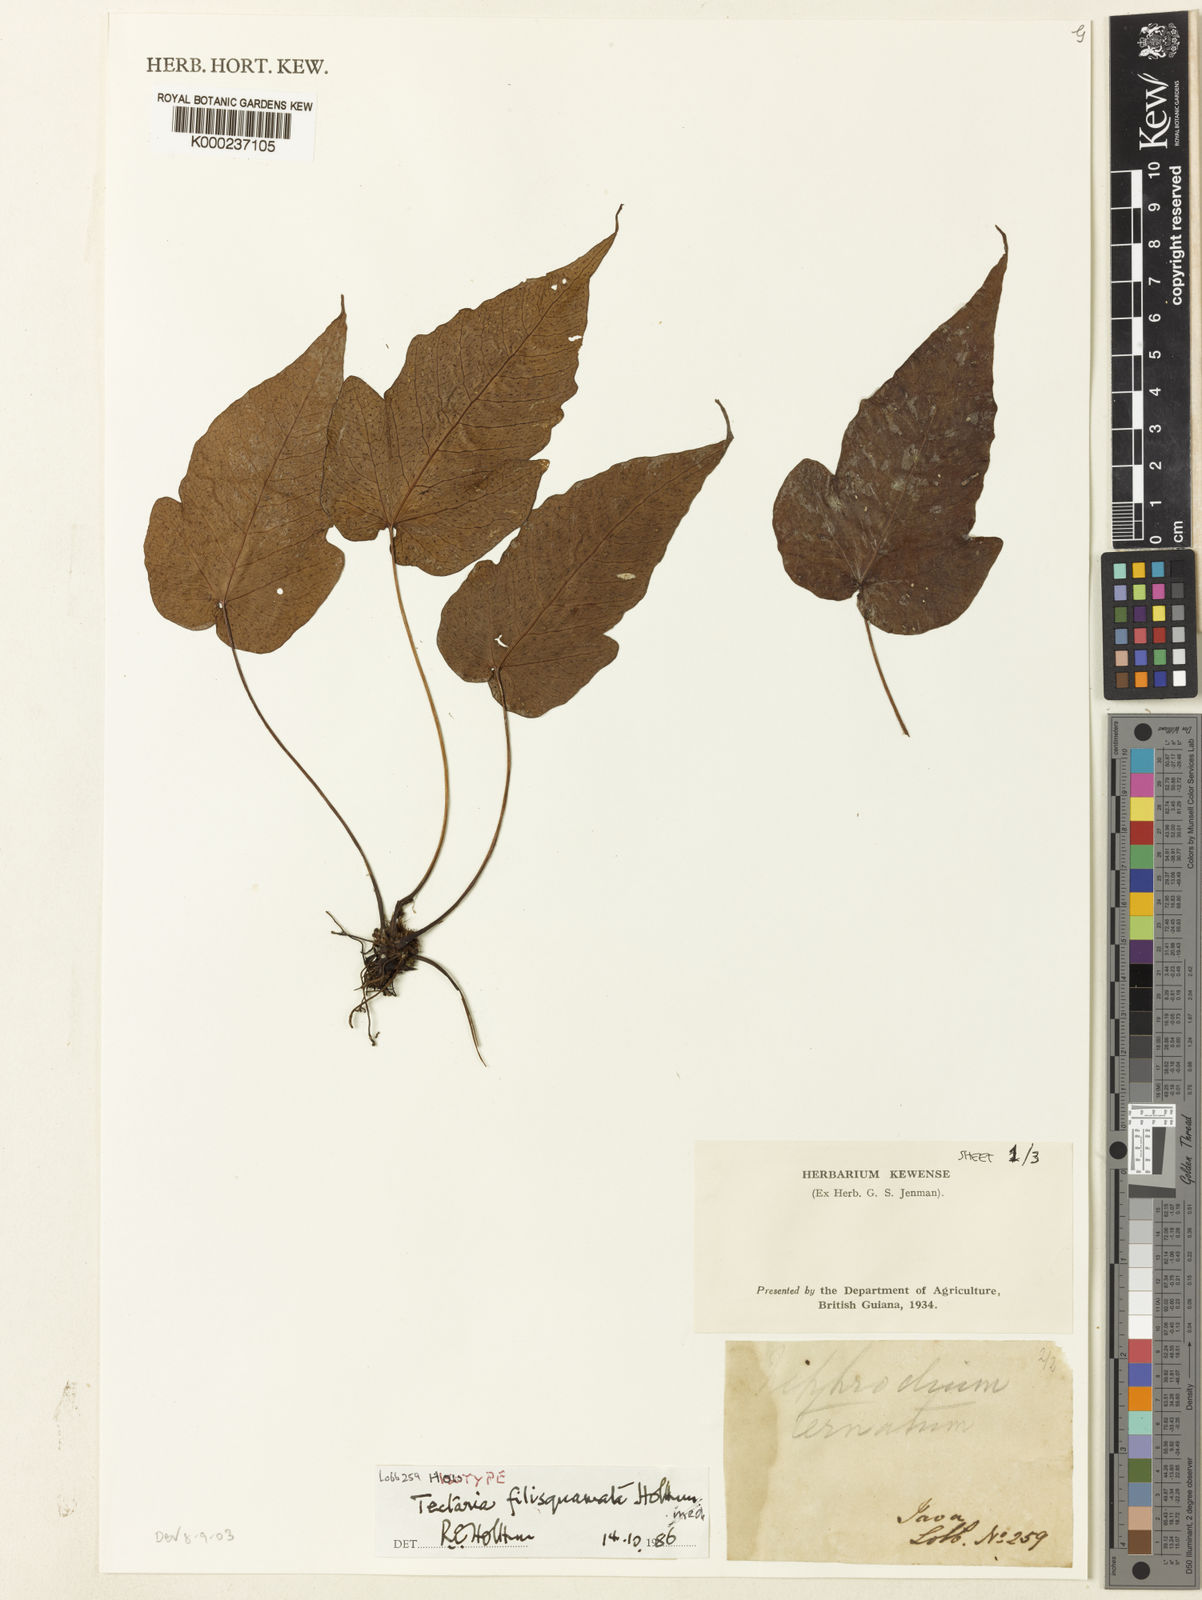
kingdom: Plantae
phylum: Tracheophyta
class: Polypodiopsida
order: Polypodiales
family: Tectariaceae
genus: Tectaria
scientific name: Tectaria filisquamata
